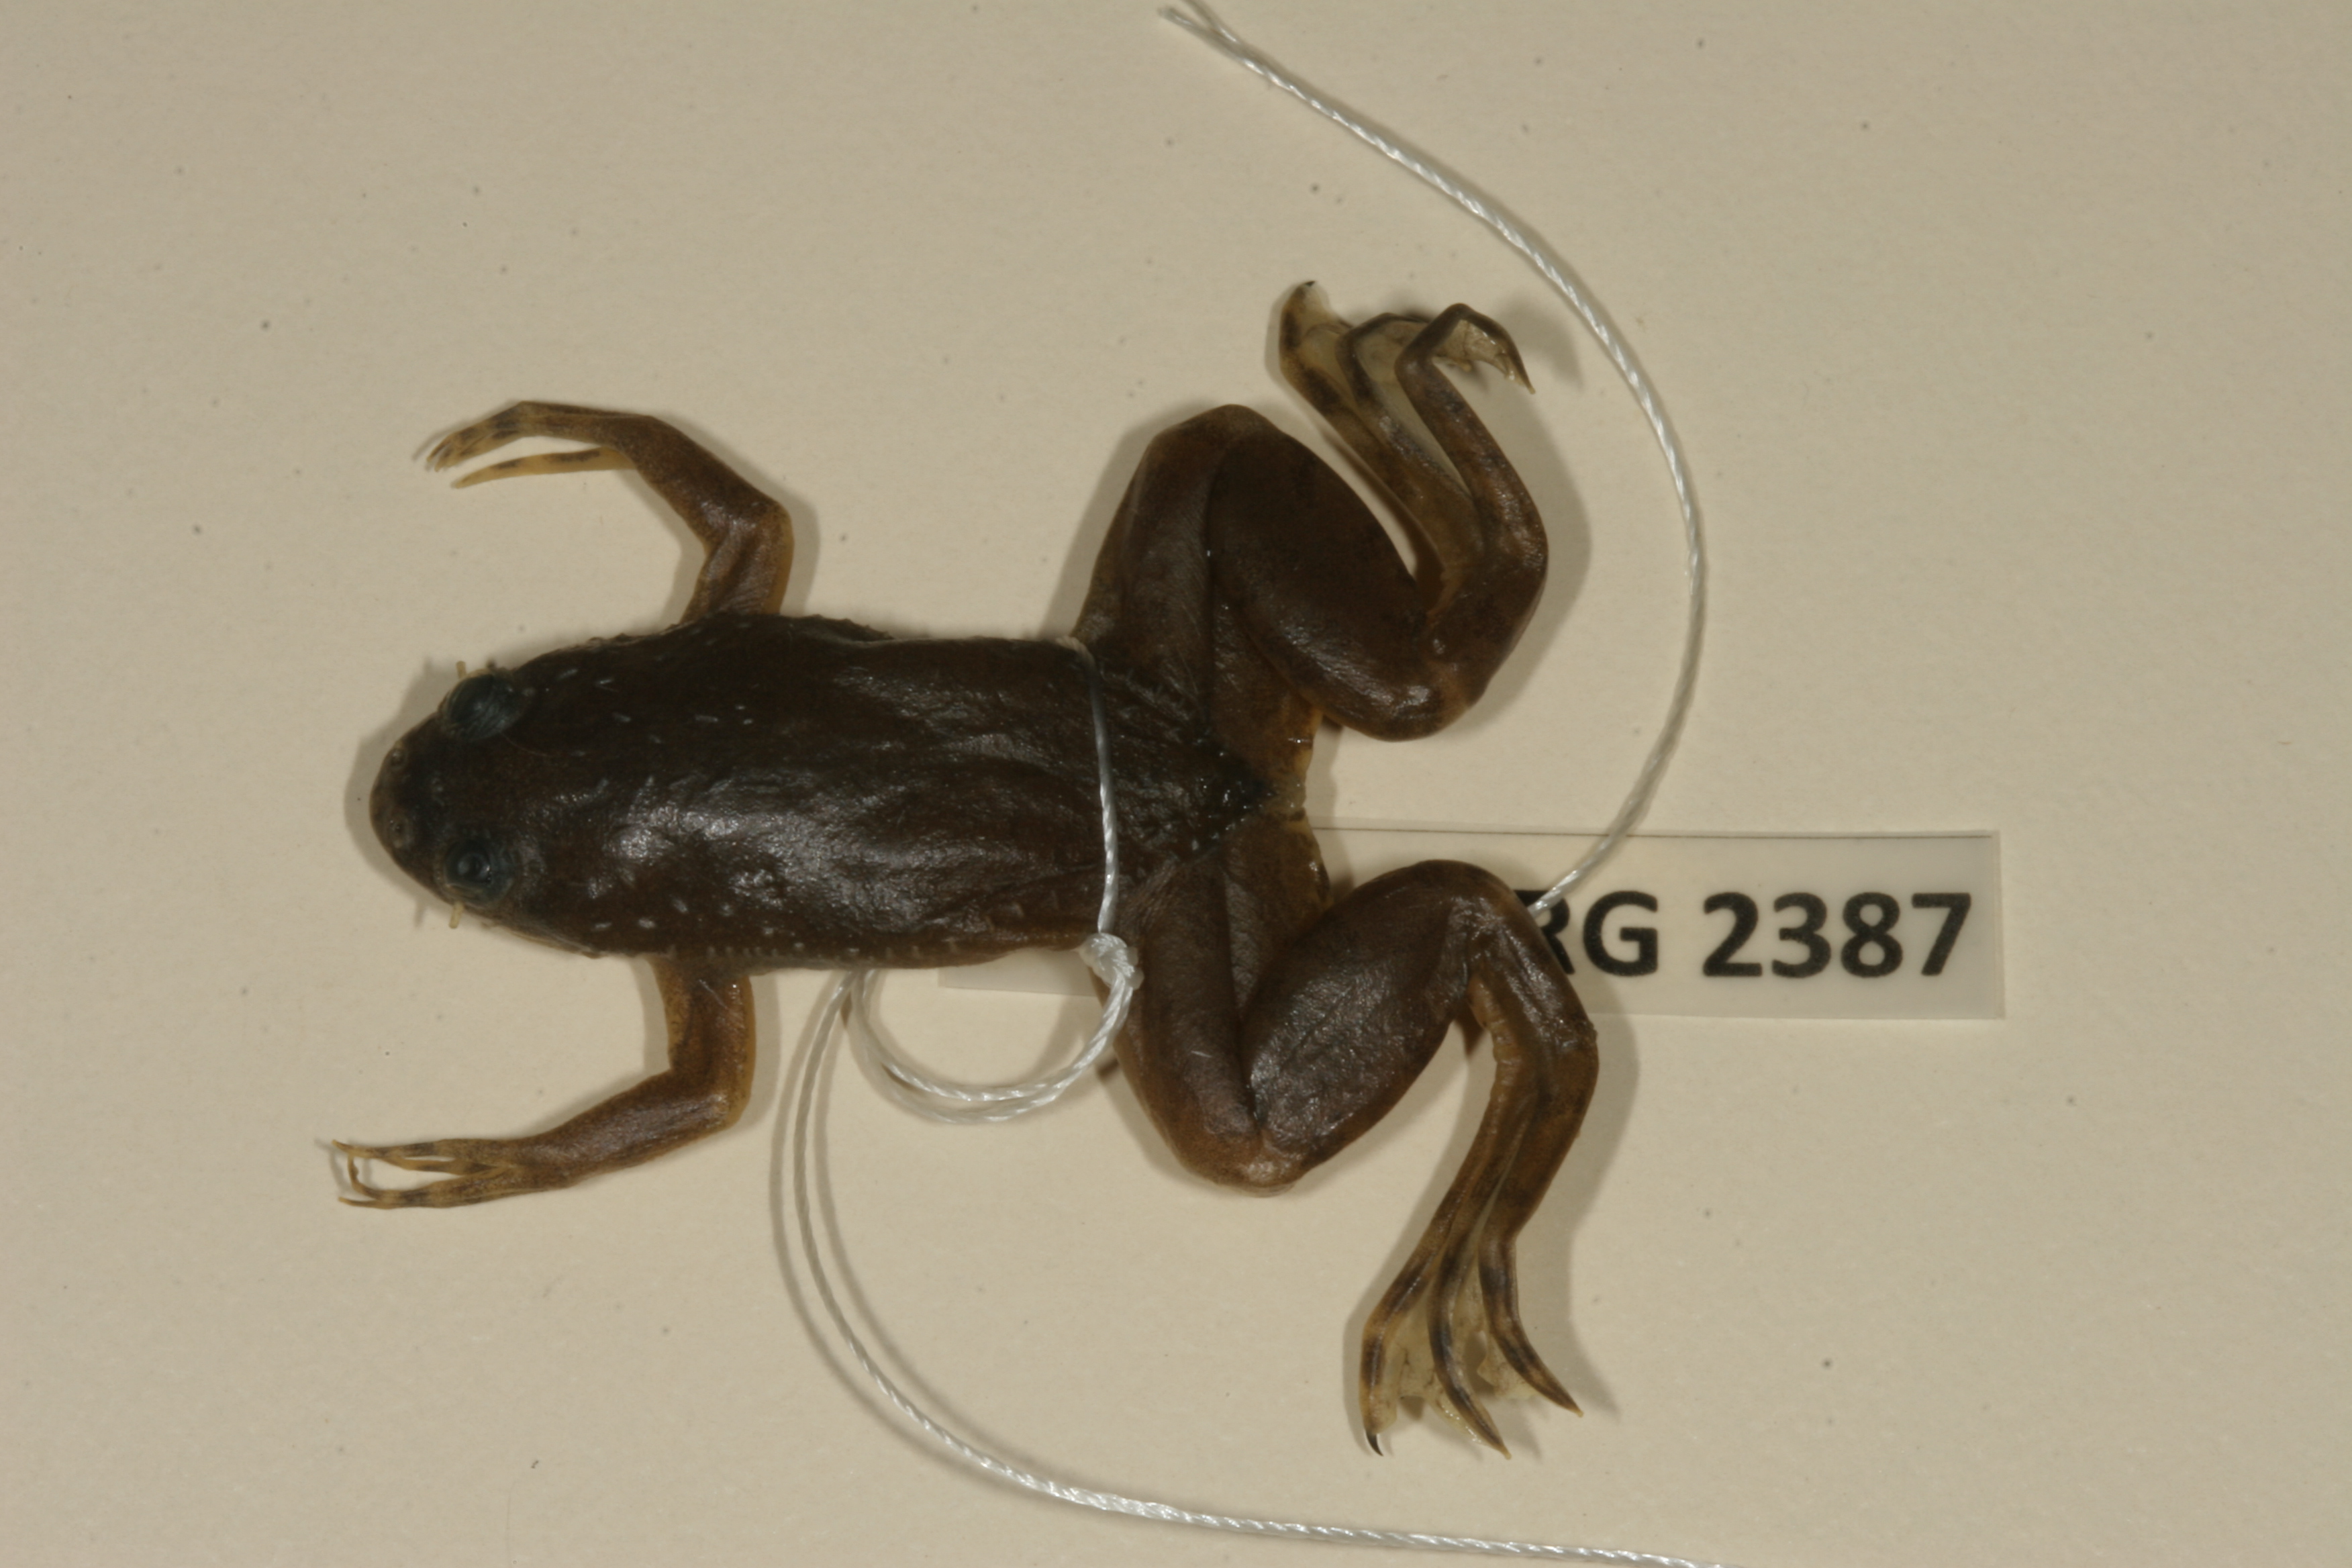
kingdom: Animalia
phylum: Chordata
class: Amphibia
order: Anura
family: Pipidae
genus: Xenopus
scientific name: Xenopus muelleri
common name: Muller's clawed frog
